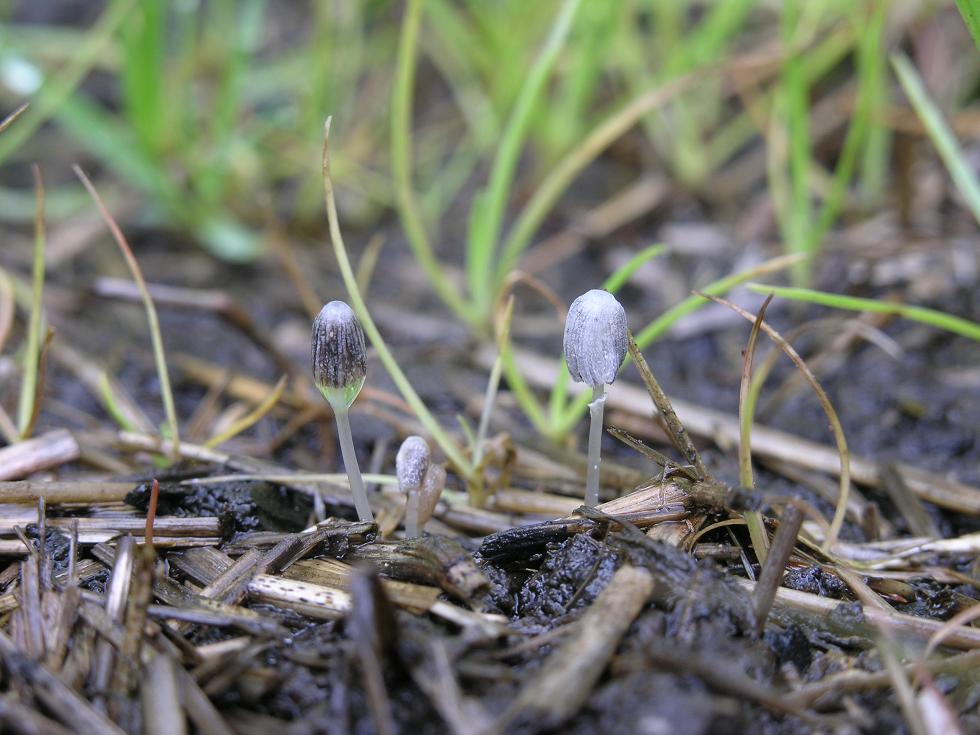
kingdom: Fungi
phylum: Basidiomycota
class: Agaricomycetes
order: Agaricales
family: Psathyrellaceae
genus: Narcissea
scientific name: Narcissea ephemeroides
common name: ring-blækhat
